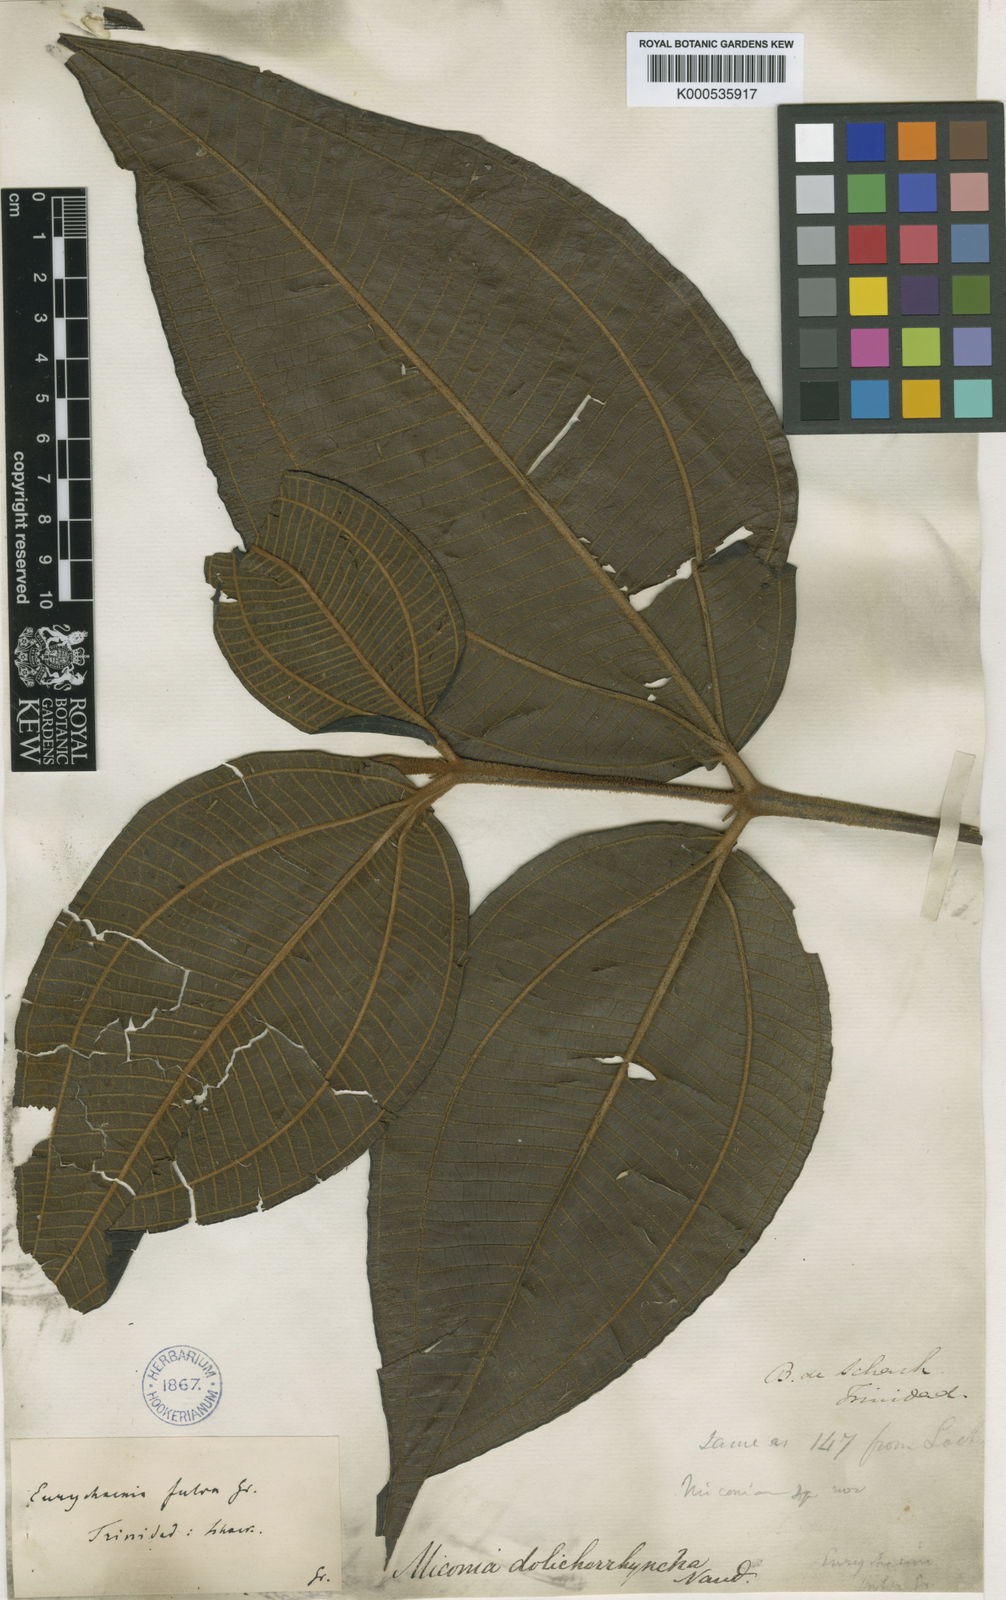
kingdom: Plantae
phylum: Tracheophyta
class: Magnoliopsida
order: Myrtales
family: Melastomataceae
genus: Miconia
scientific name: Miconia dolichorrhyncha
